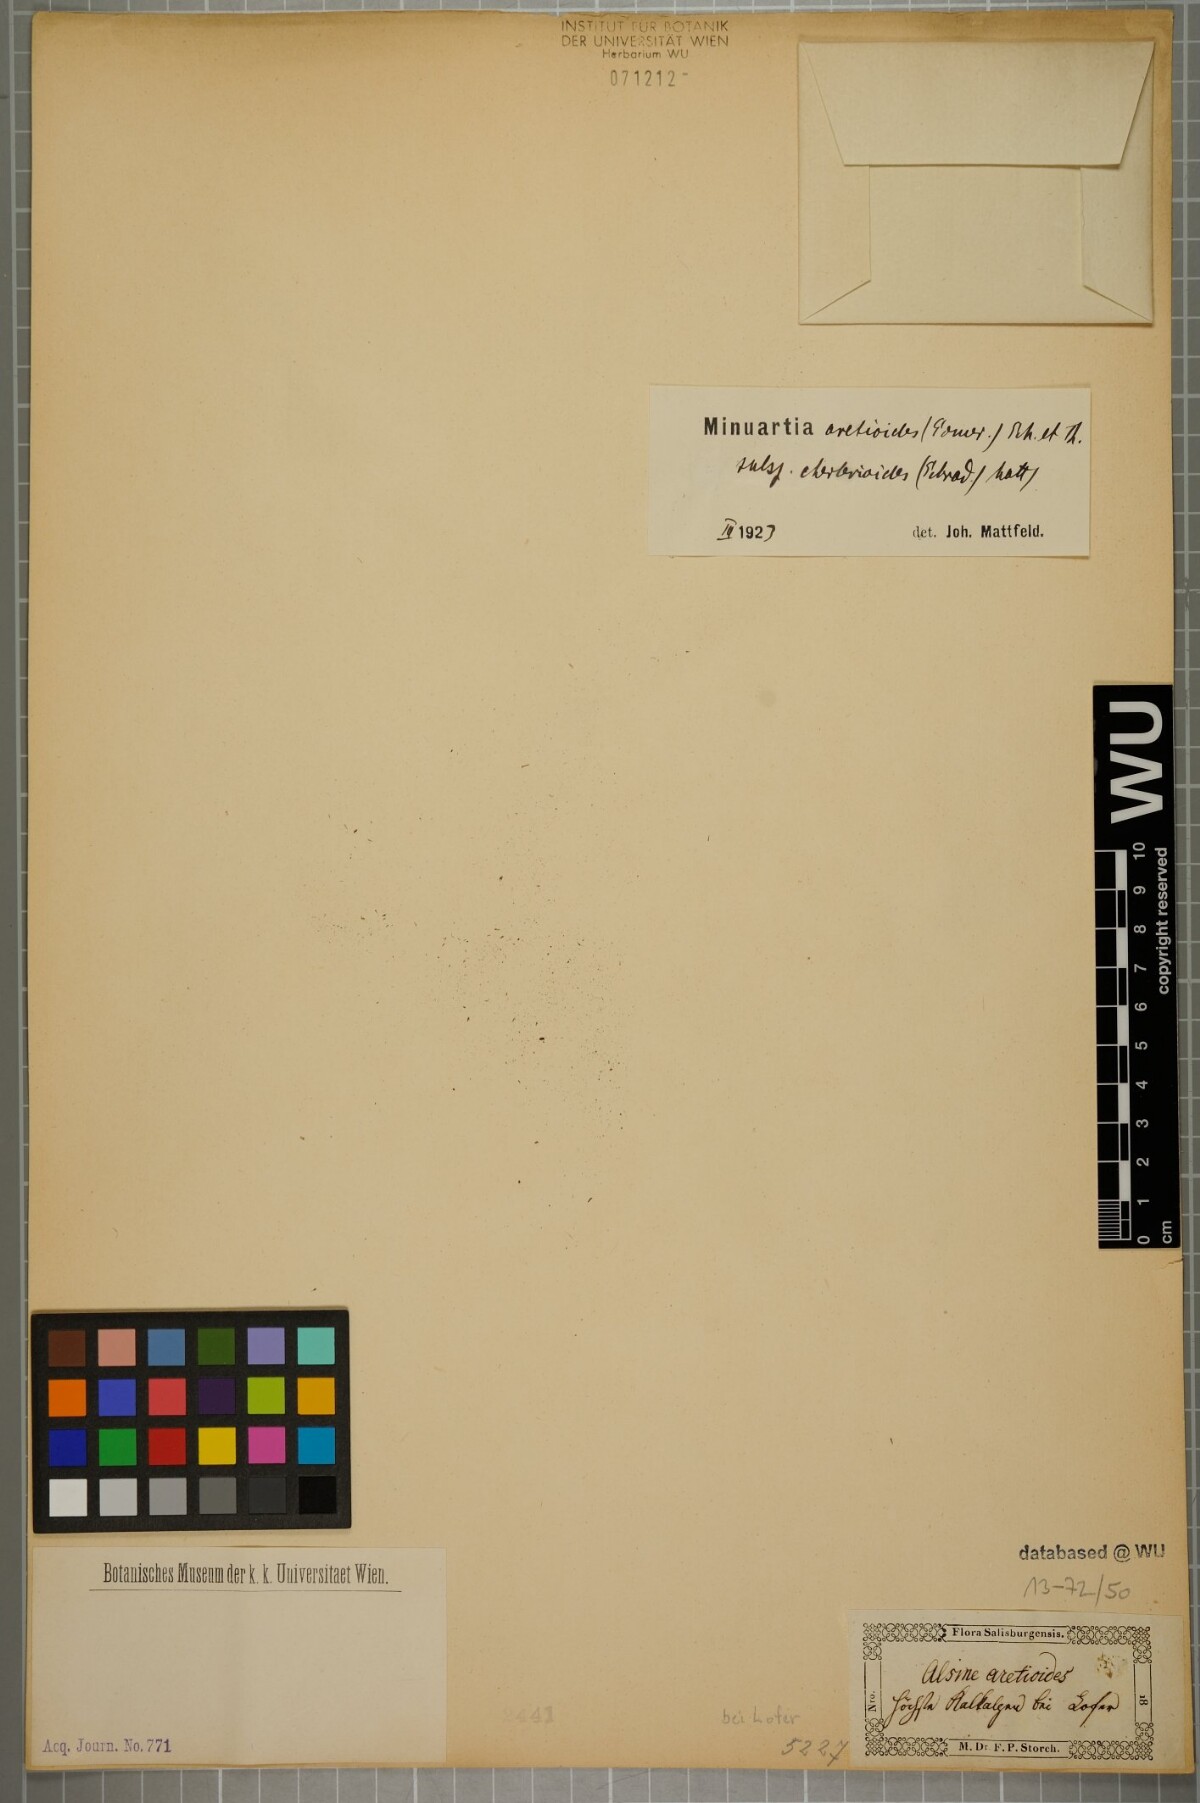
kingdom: Plantae
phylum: Tracheophyta
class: Magnoliopsida
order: Caryophyllales
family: Caryophyllaceae
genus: Facchinia
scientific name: Facchinia cherlerioides
